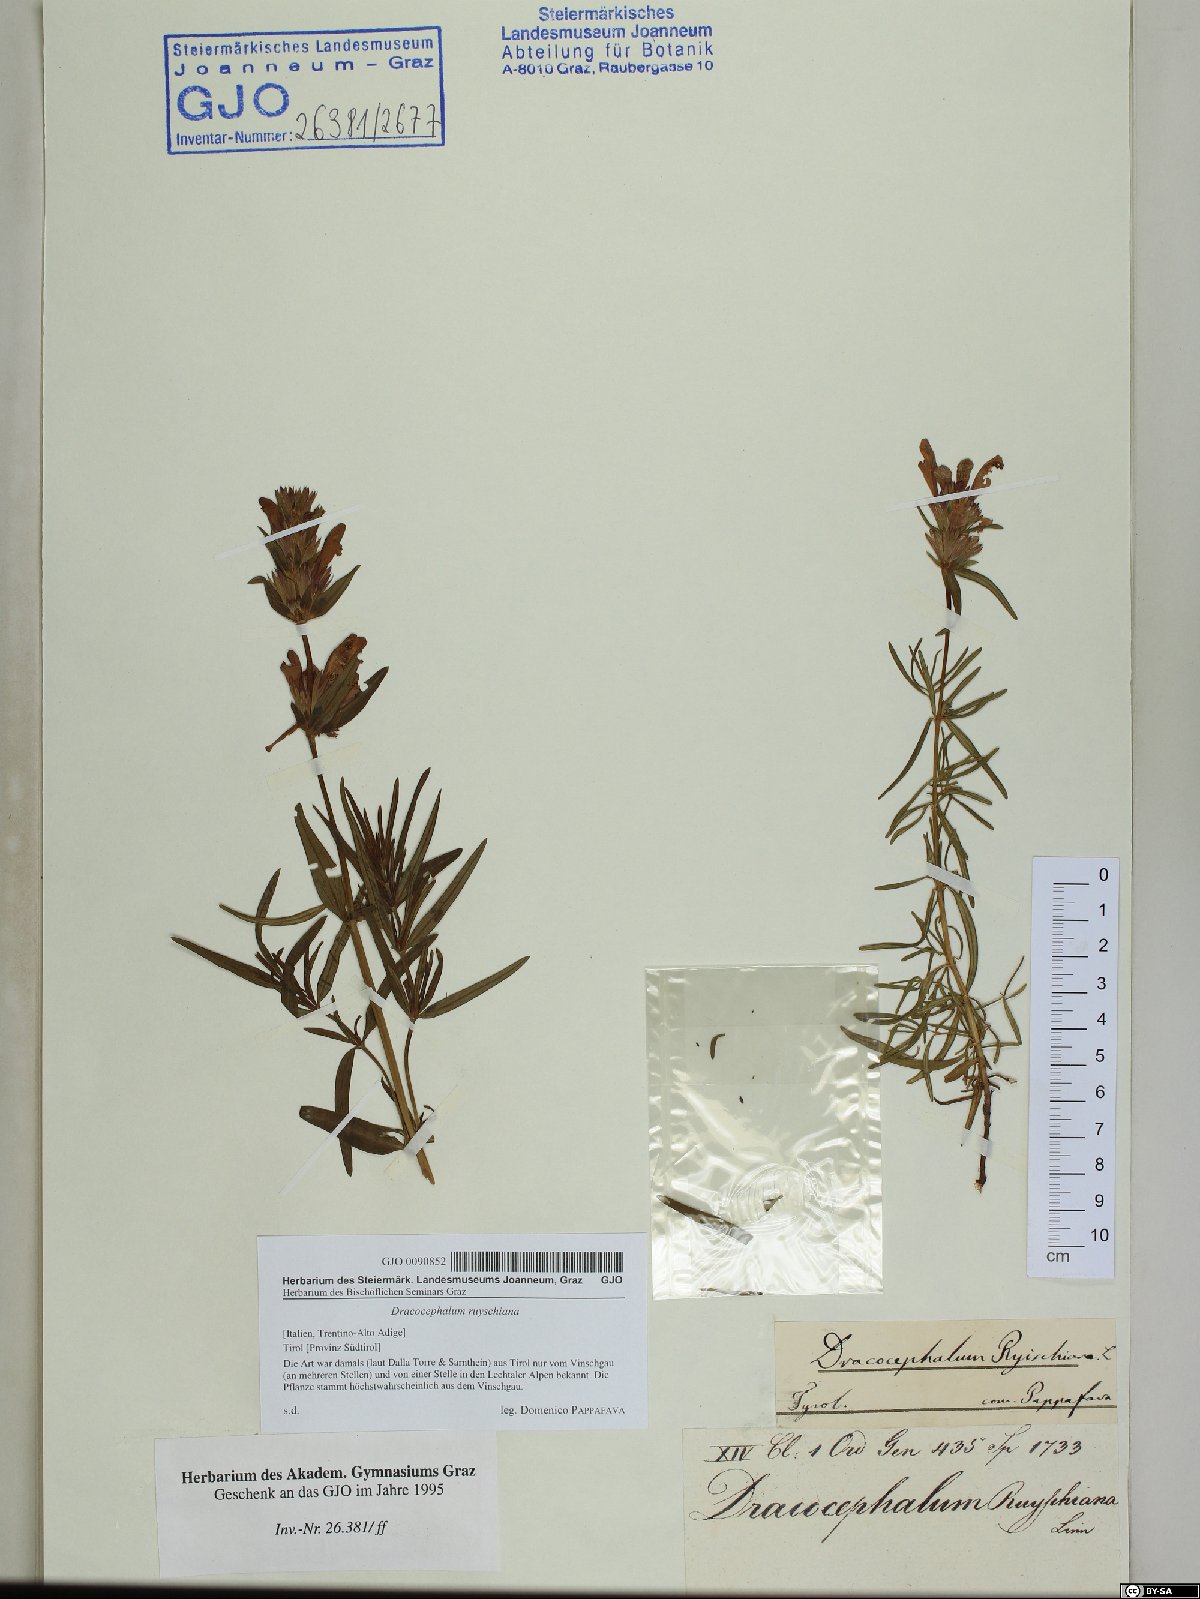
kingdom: Plantae
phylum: Tracheophyta
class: Magnoliopsida
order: Lamiales
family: Lamiaceae
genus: Dracocephalum
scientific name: Dracocephalum ruyschiana
